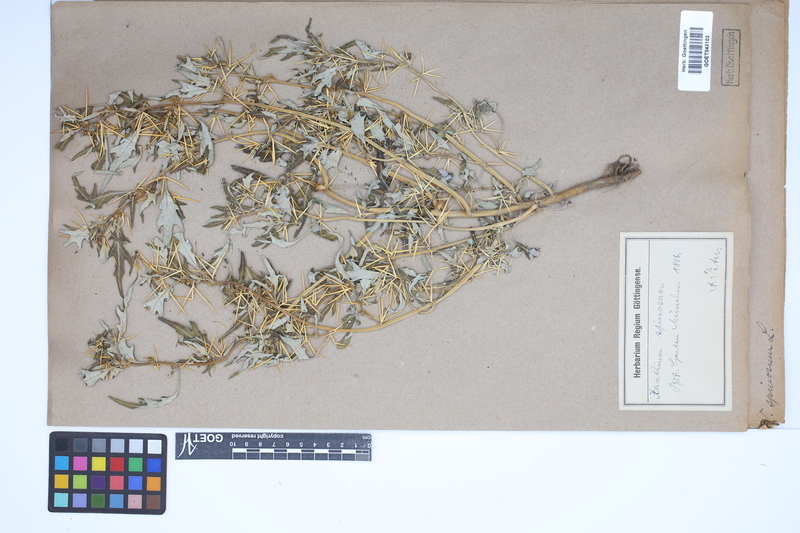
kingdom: Plantae
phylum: Tracheophyta
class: Magnoliopsida
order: Asterales
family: Asteraceae
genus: Xanthium
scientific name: Xanthium spinosum
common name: Spiny cocklebur
